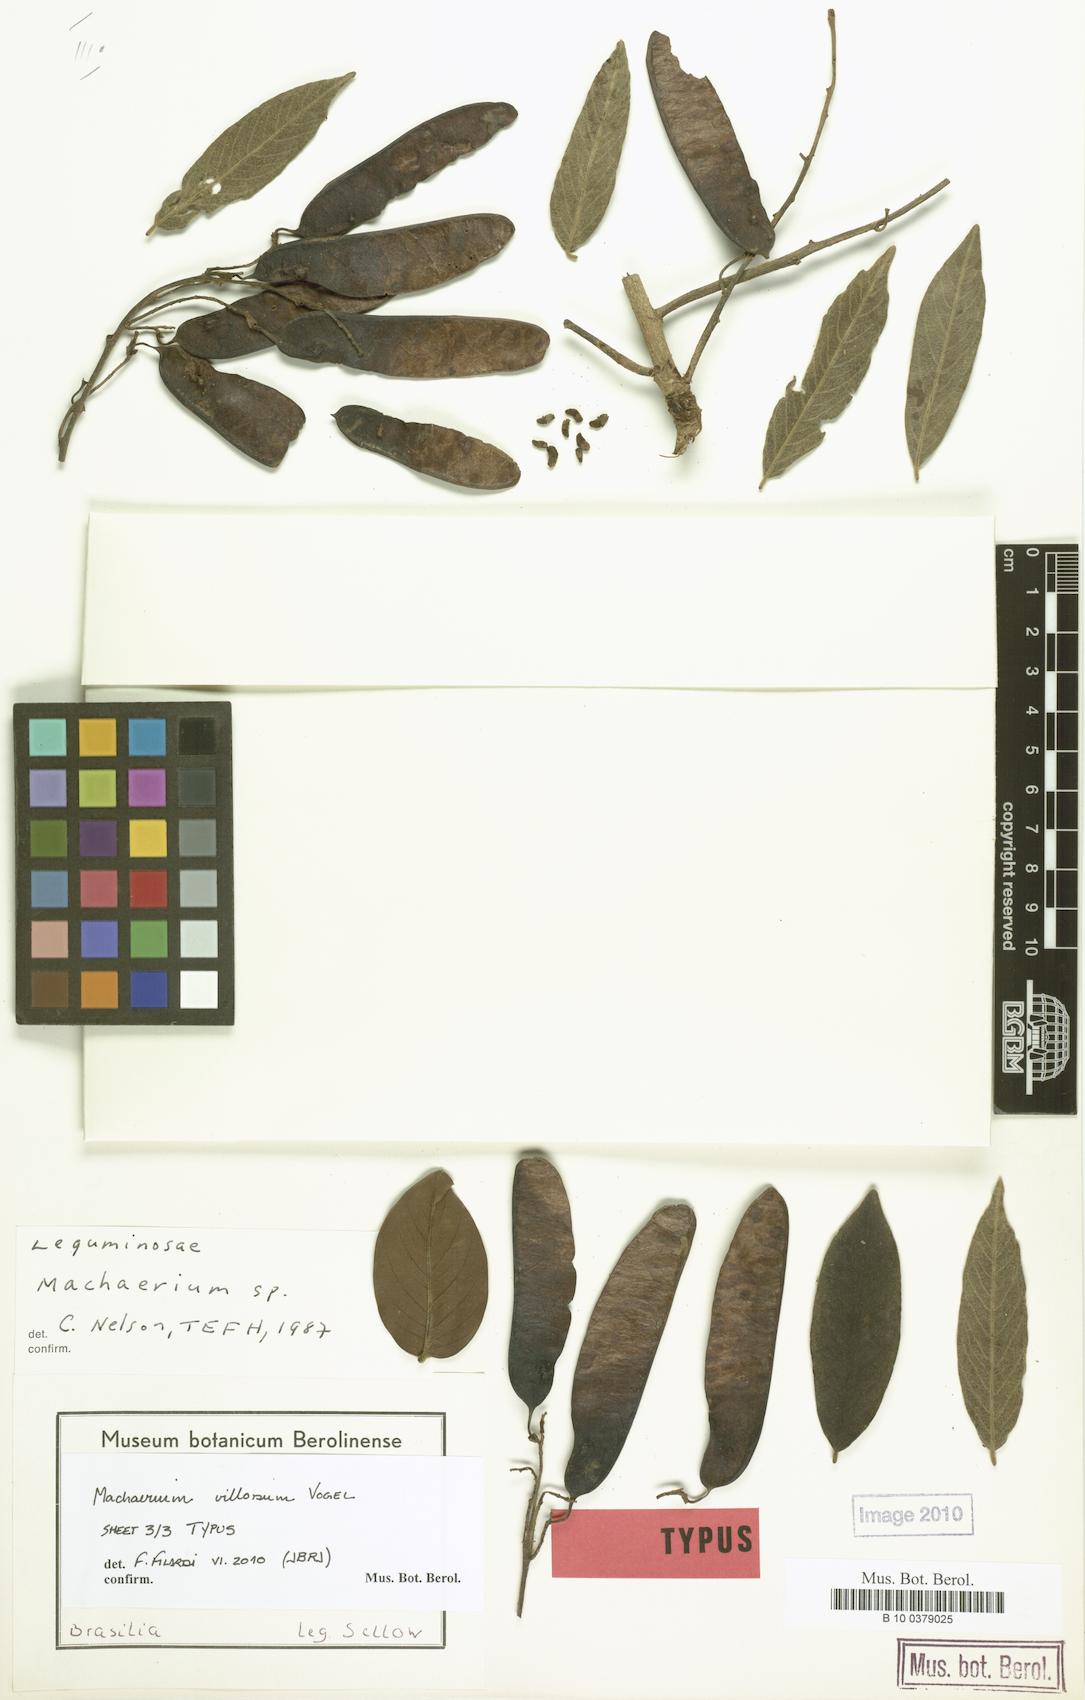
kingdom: Plantae
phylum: Tracheophyta
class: Magnoliopsida
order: Fabales
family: Fabaceae
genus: Machaerium
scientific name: Machaerium villosum
